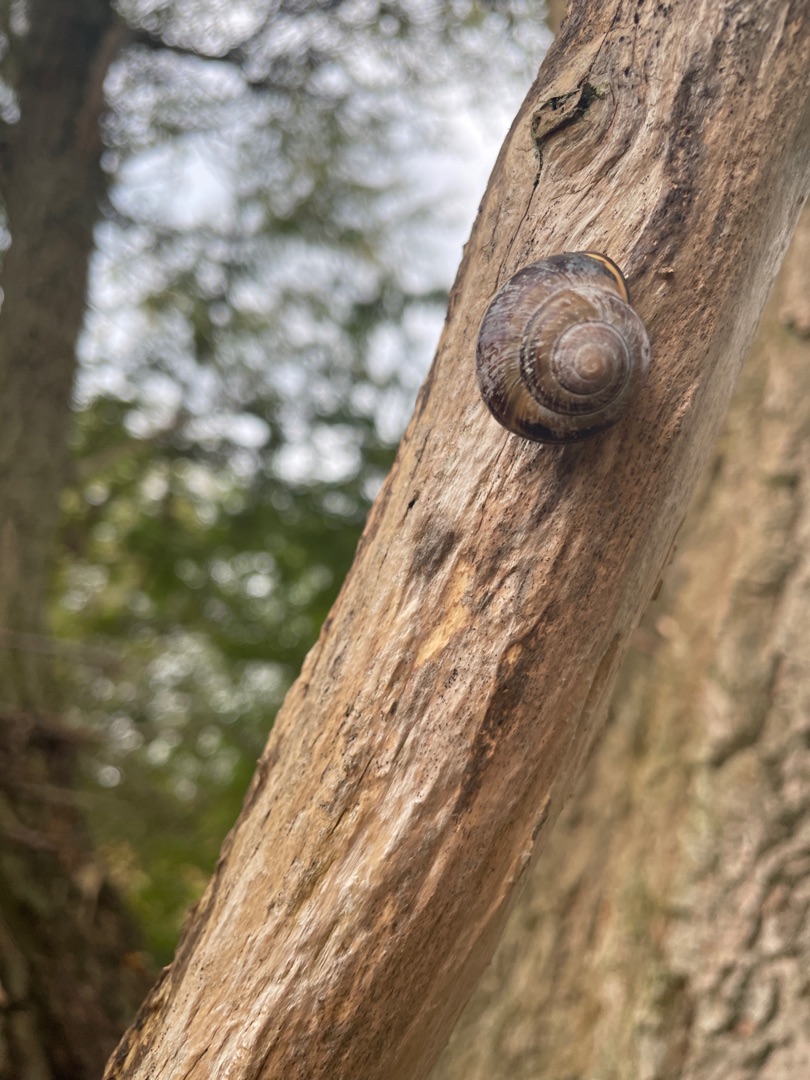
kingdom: Animalia
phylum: Mollusca
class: Gastropoda
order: Stylommatophora
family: Helicidae
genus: Cepaea
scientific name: Cepaea nemoralis
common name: Lundsnegl
